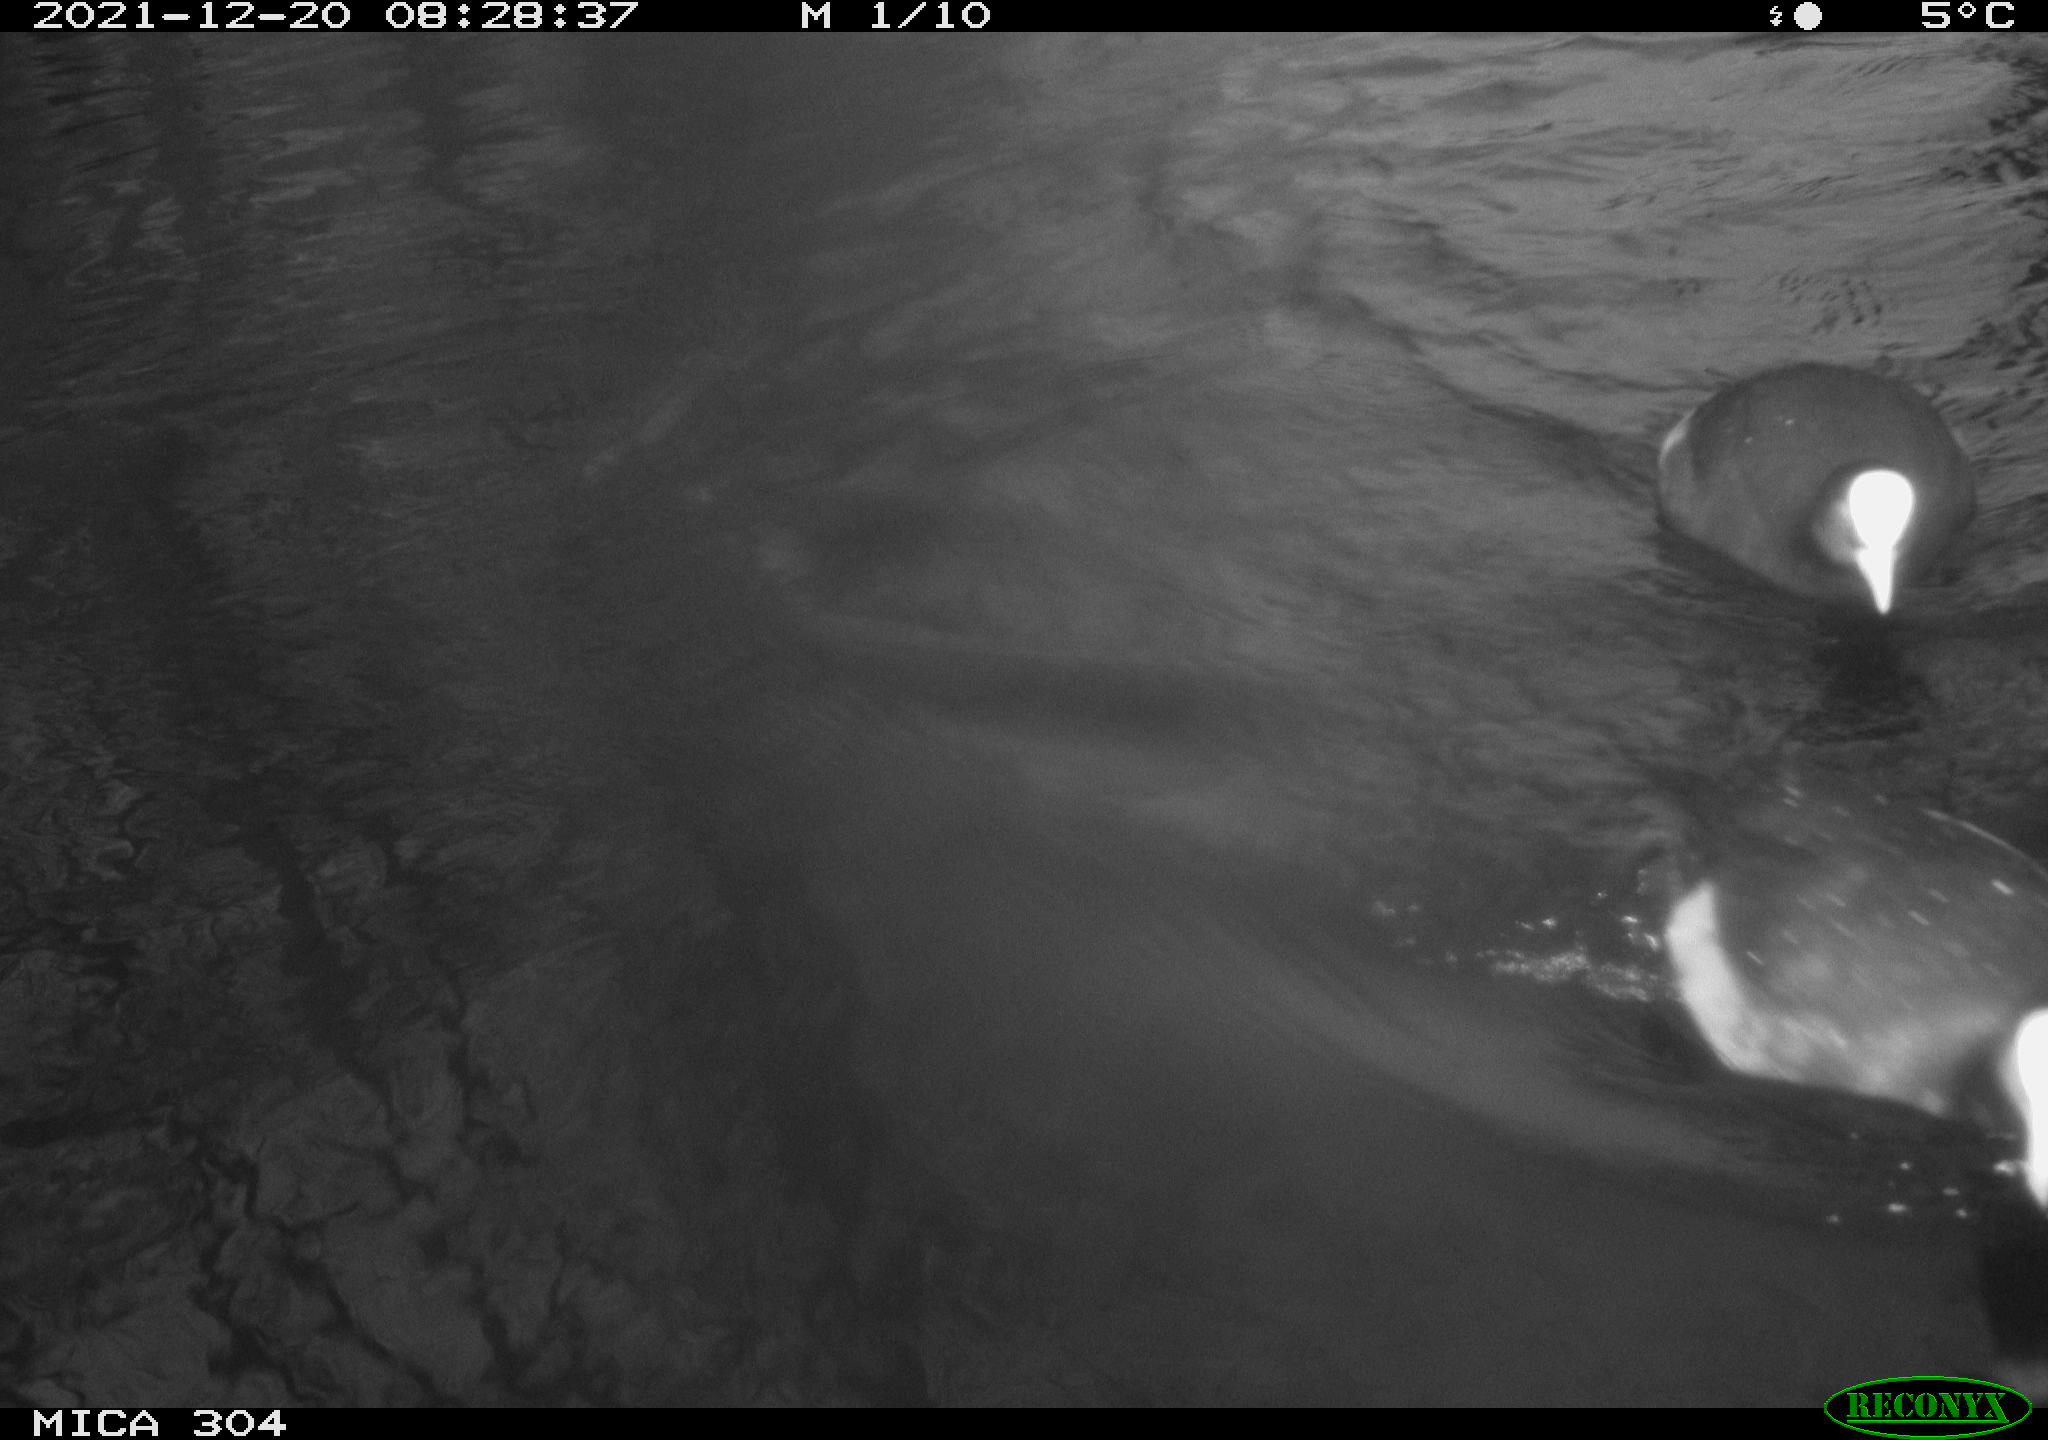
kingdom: Animalia
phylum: Chordata
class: Aves
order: Gruiformes
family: Rallidae
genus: Fulica
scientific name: Fulica atra
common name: Eurasian coot
